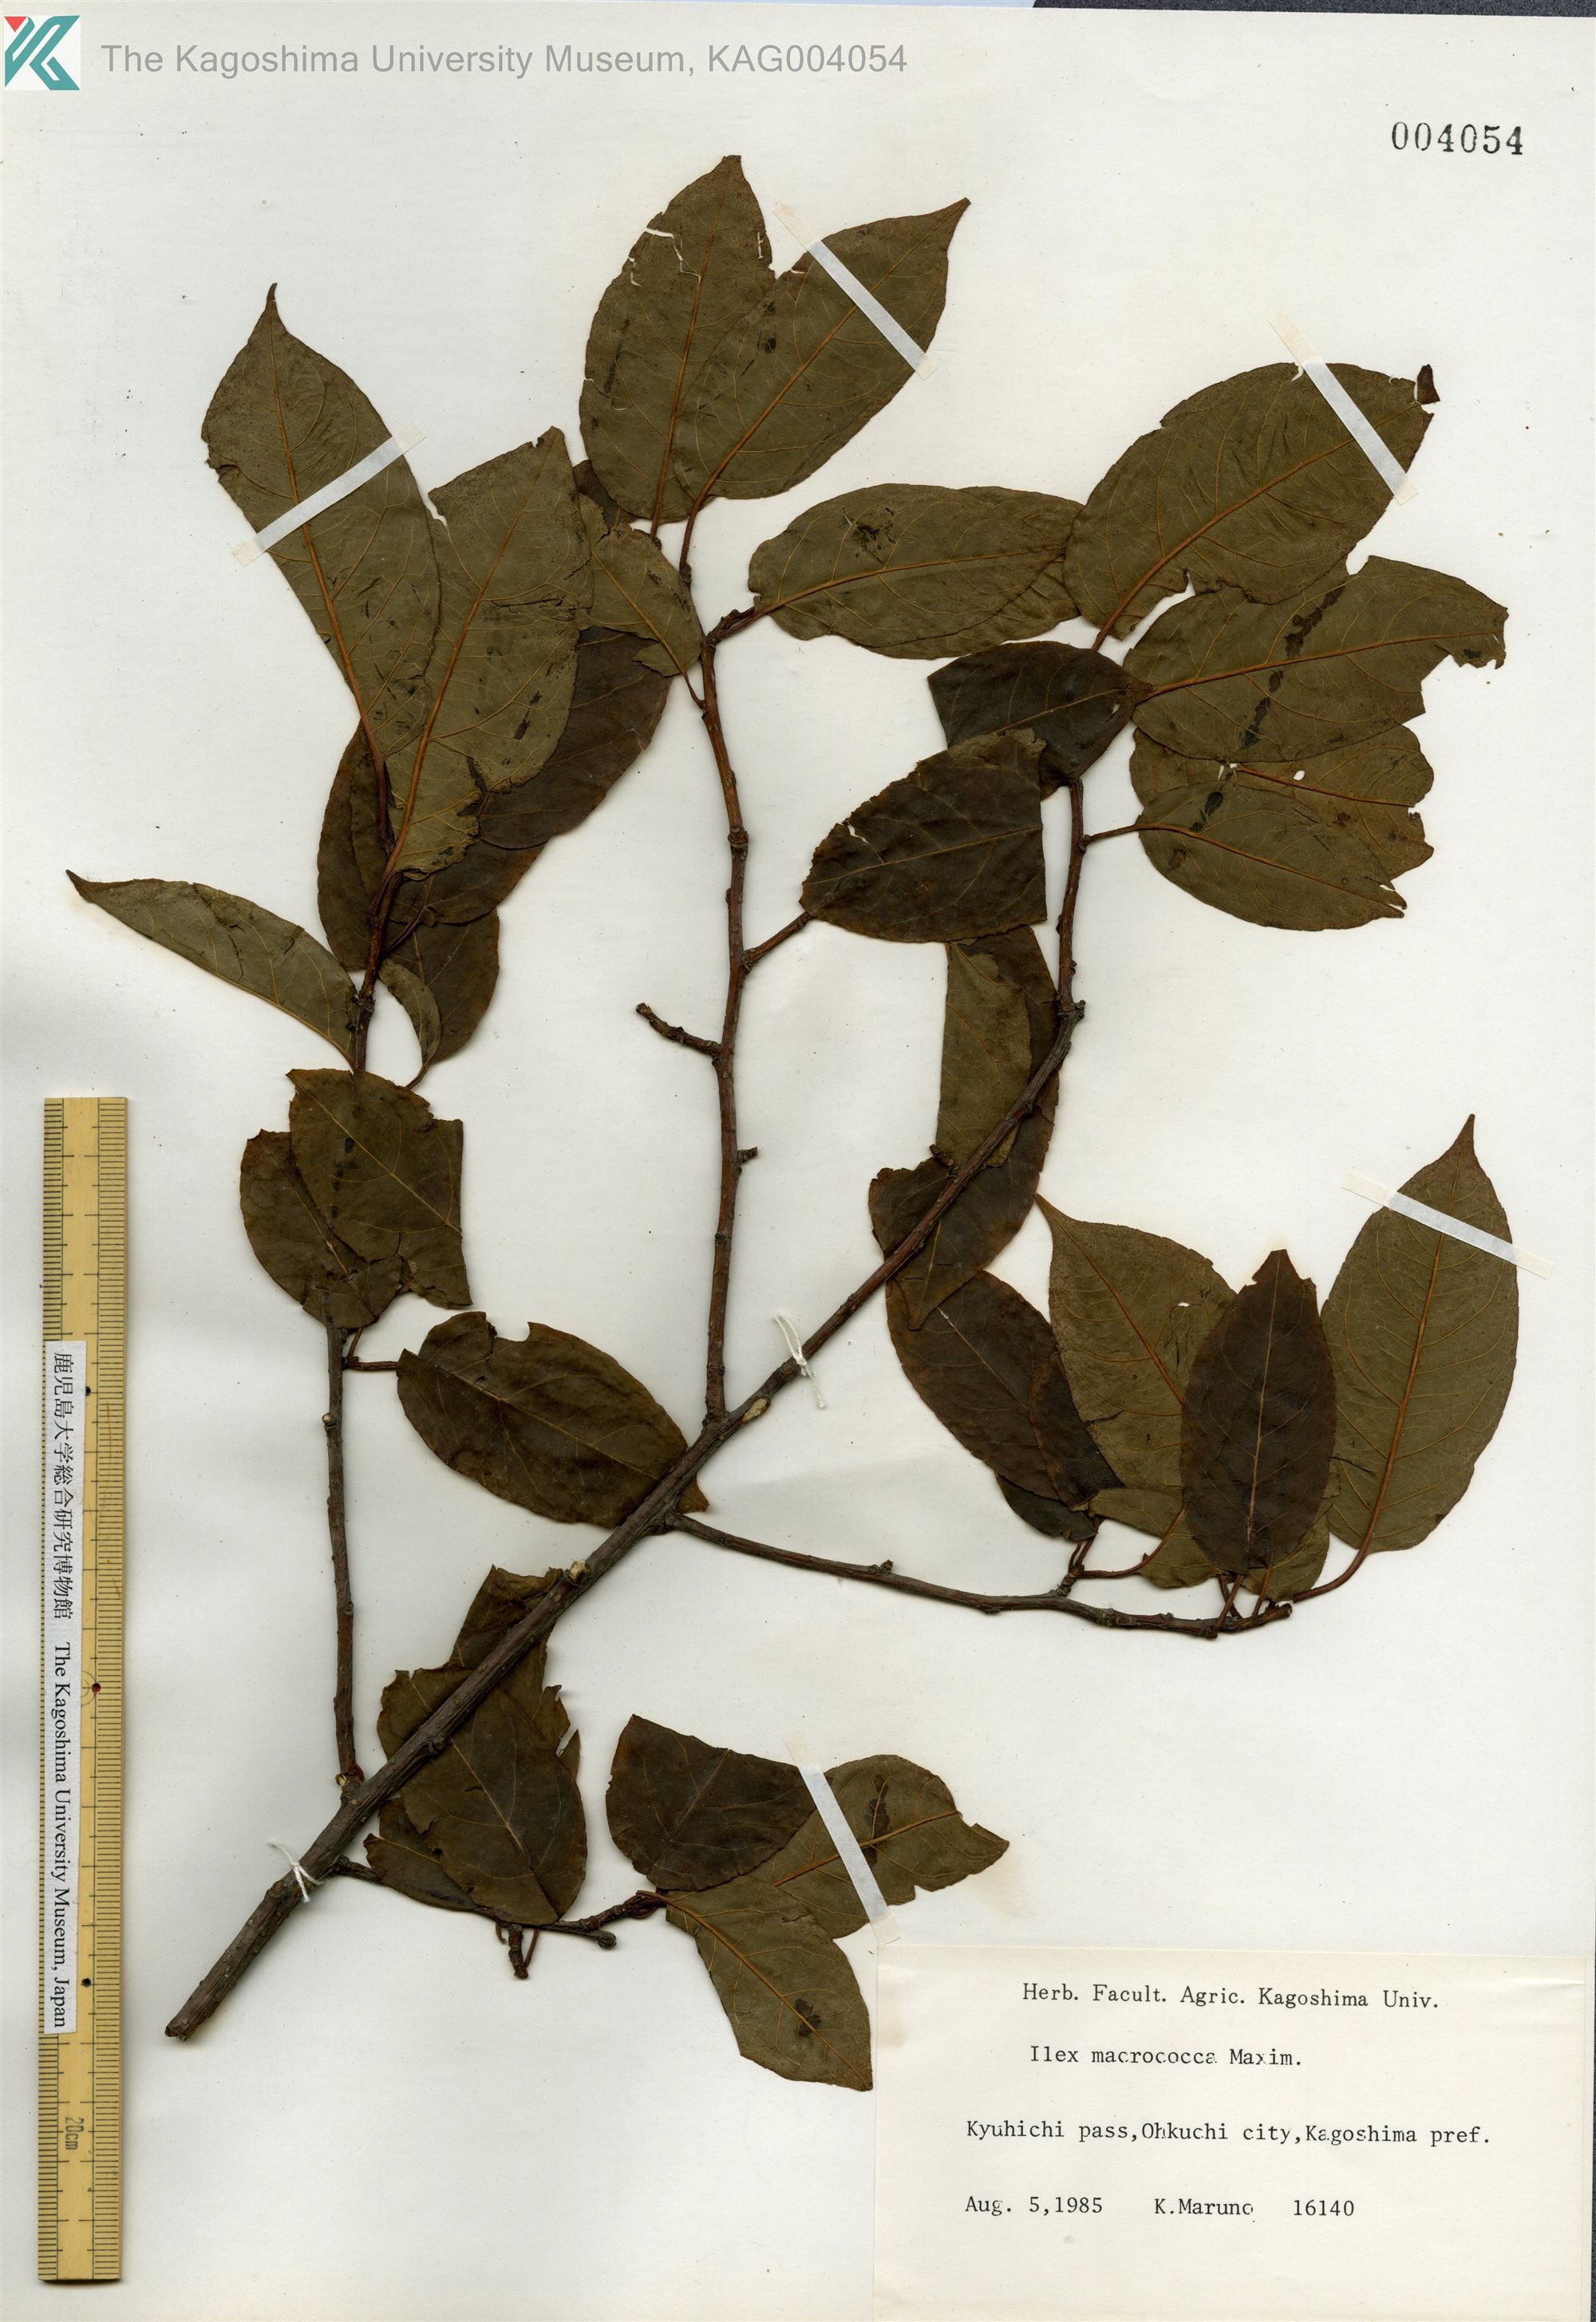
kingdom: Plantae
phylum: Tracheophyta
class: Magnoliopsida
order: Aquifoliales
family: Aquifoliaceae
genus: Ilex
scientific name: Ilex rotunda
